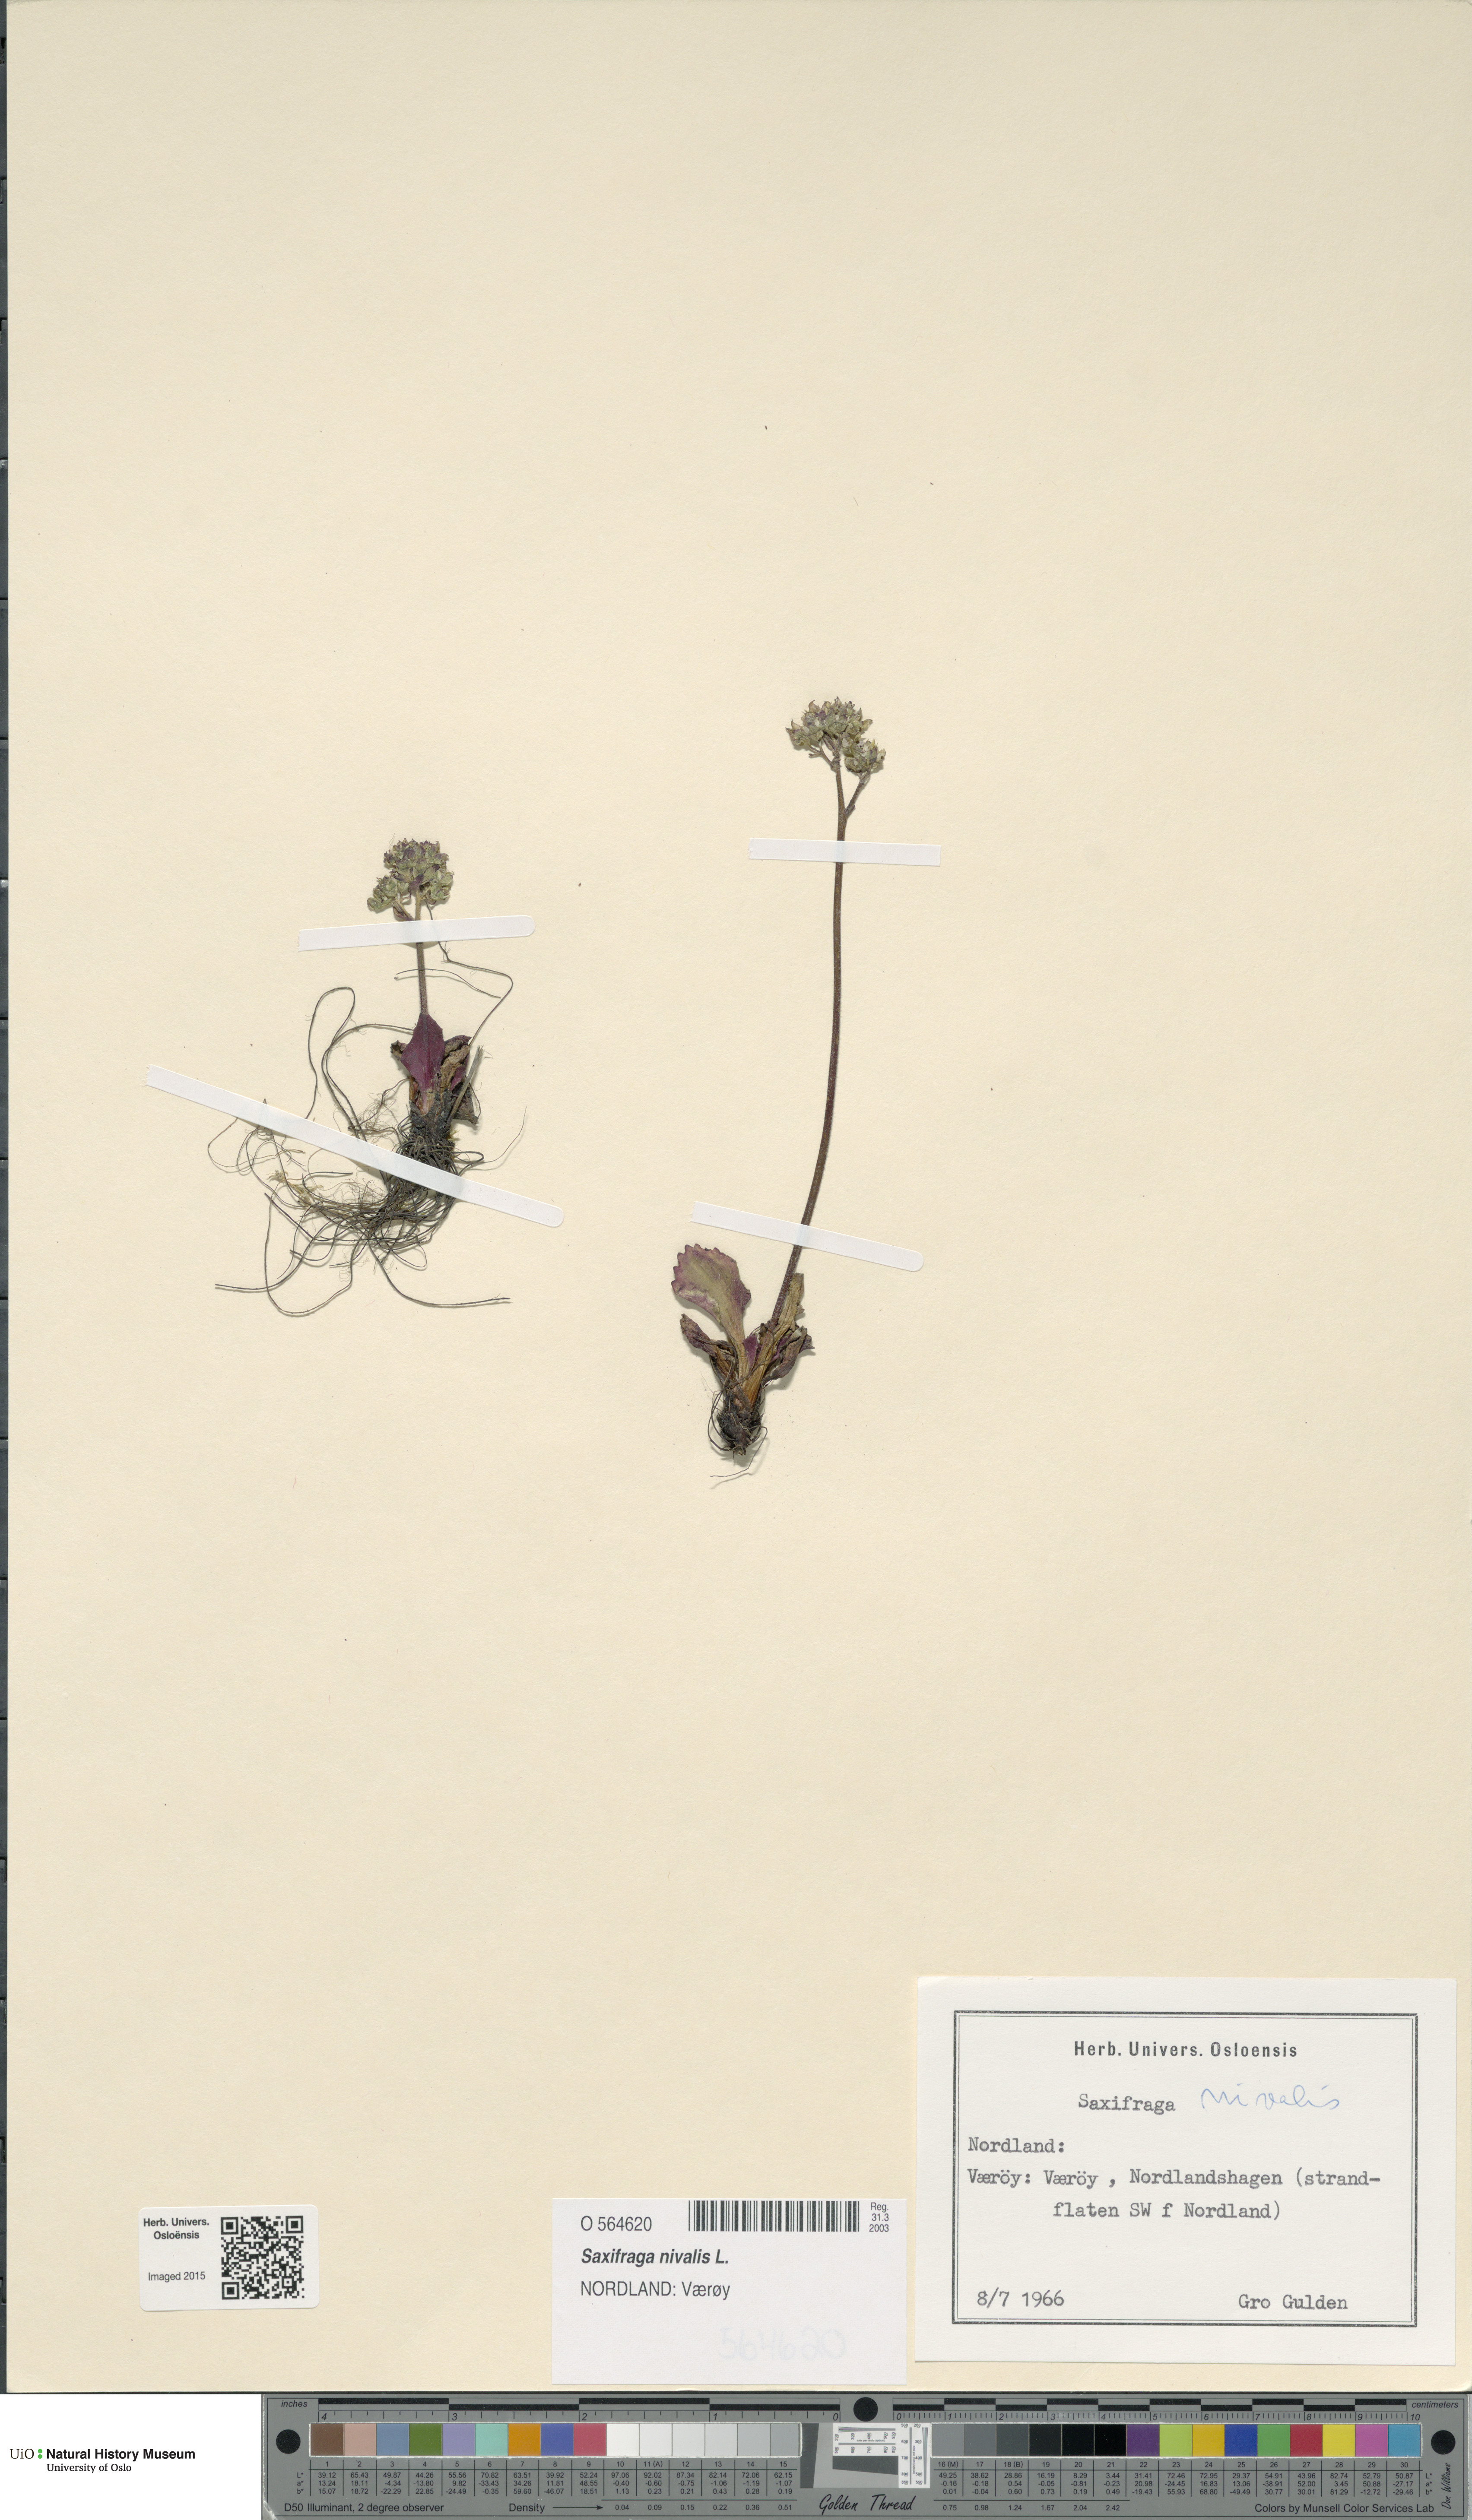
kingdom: Plantae
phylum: Tracheophyta
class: Magnoliopsida
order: Saxifragales
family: Saxifragaceae
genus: Micranthes
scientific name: Micranthes nivalis
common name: Alpine saxifrage
